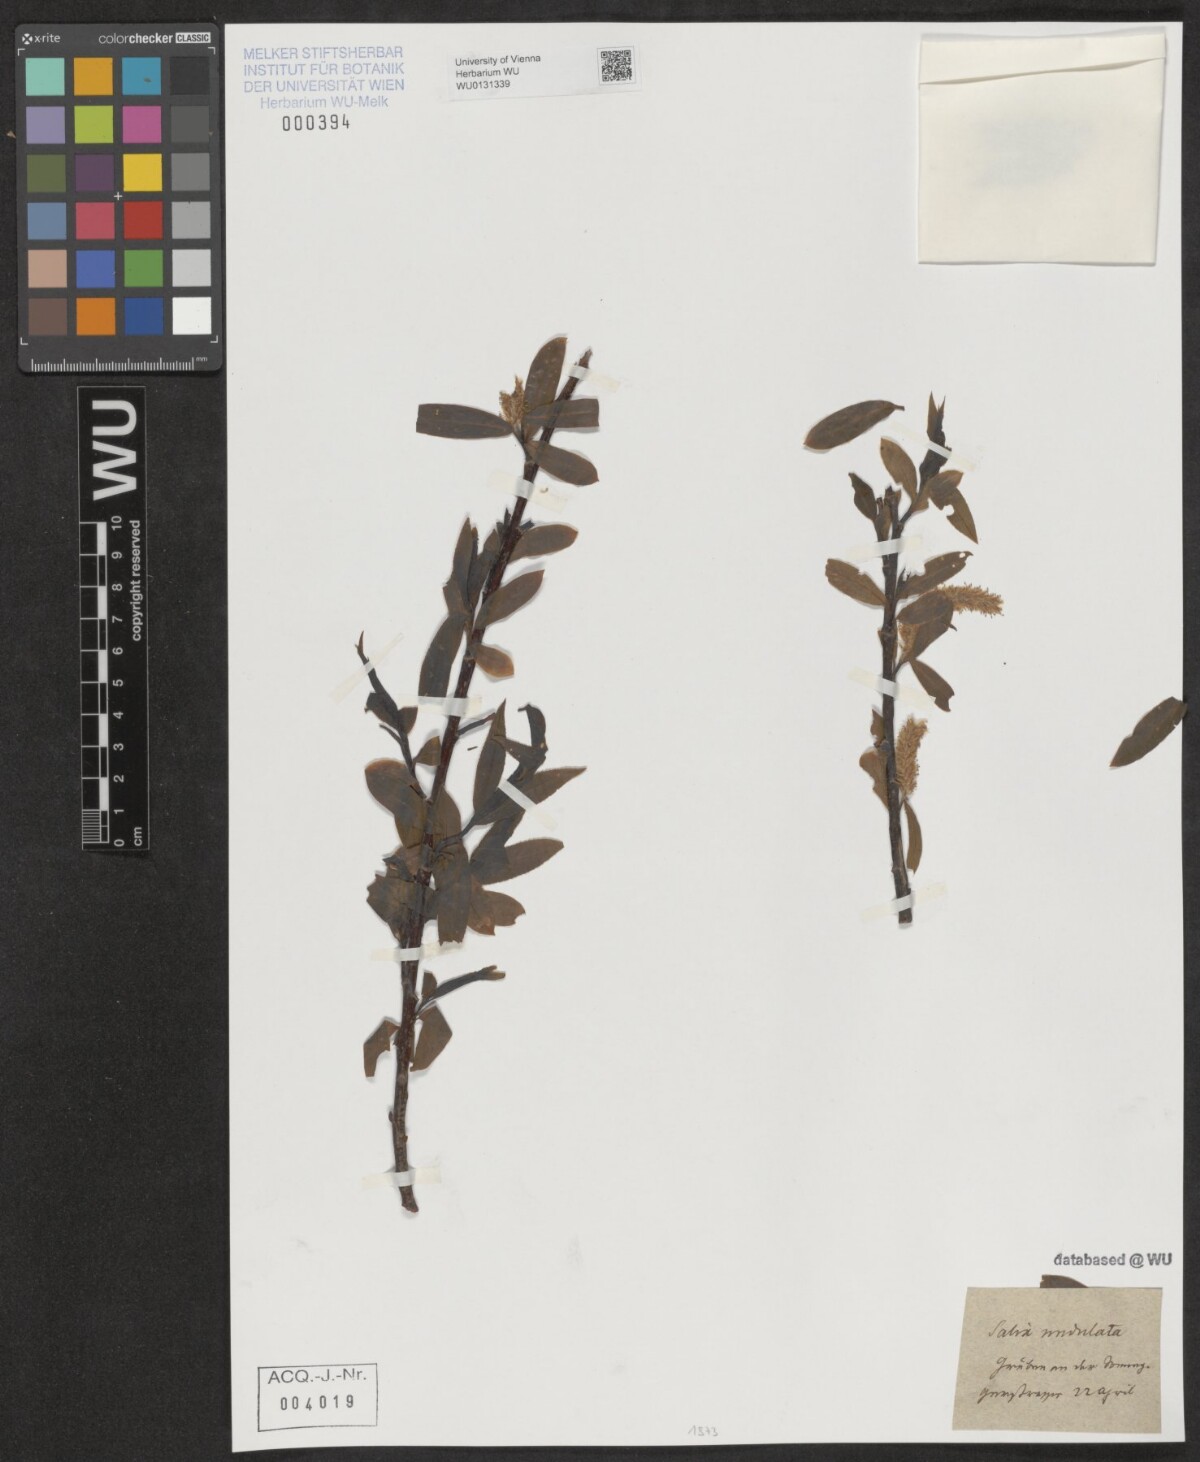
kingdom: Plantae
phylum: Tracheophyta
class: Magnoliopsida
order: Malpighiales
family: Salicaceae
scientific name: Salicaceae
